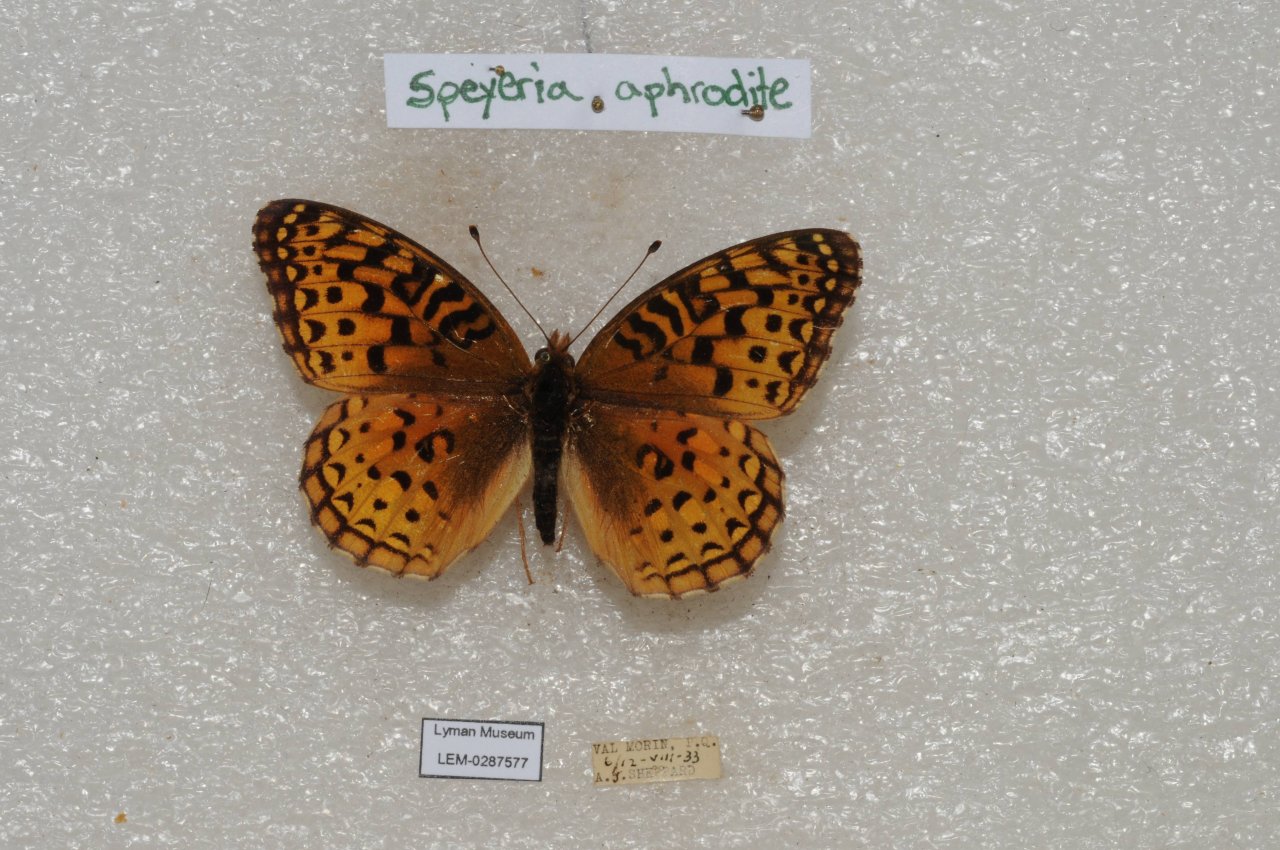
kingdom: Animalia
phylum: Arthropoda
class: Insecta
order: Lepidoptera
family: Nymphalidae
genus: Speyeria
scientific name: Speyeria aphrodite
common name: Aphrodite Fritillary
